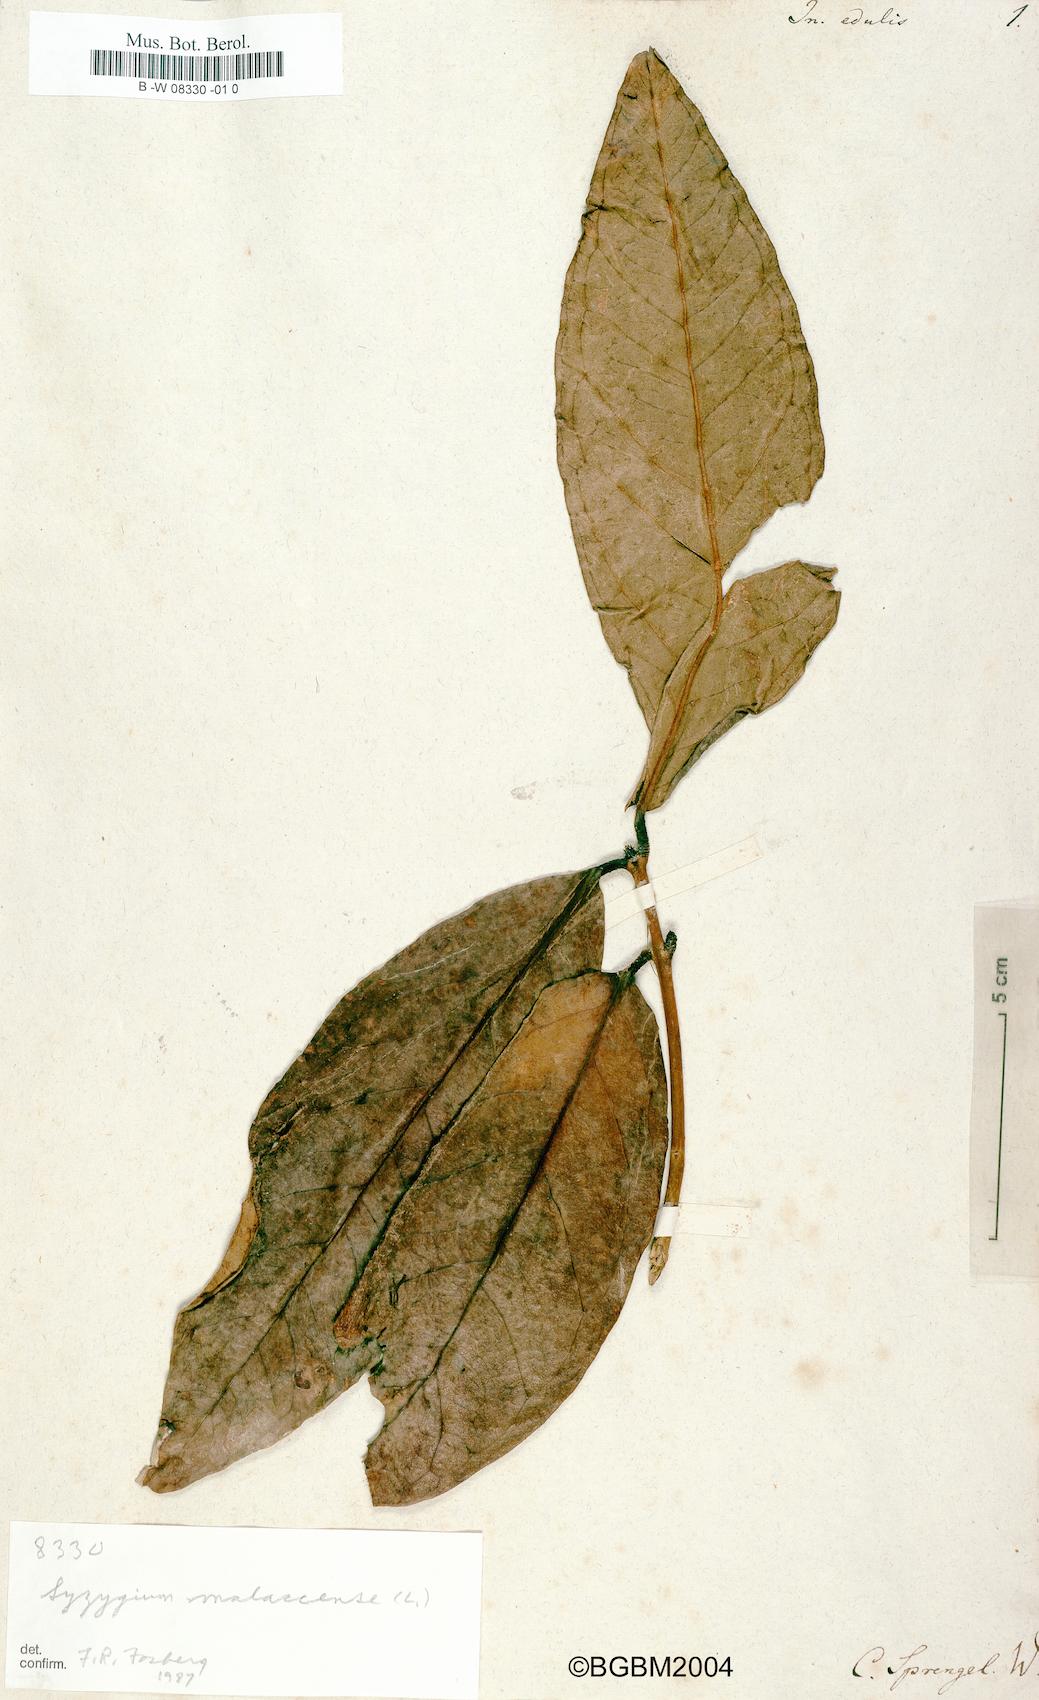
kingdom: Plantae
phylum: Tracheophyta
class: Magnoliopsida
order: Fabales
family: Fabaceae
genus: Inocarpus
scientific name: Inocarpus fagifer
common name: Polynesian chestnut
